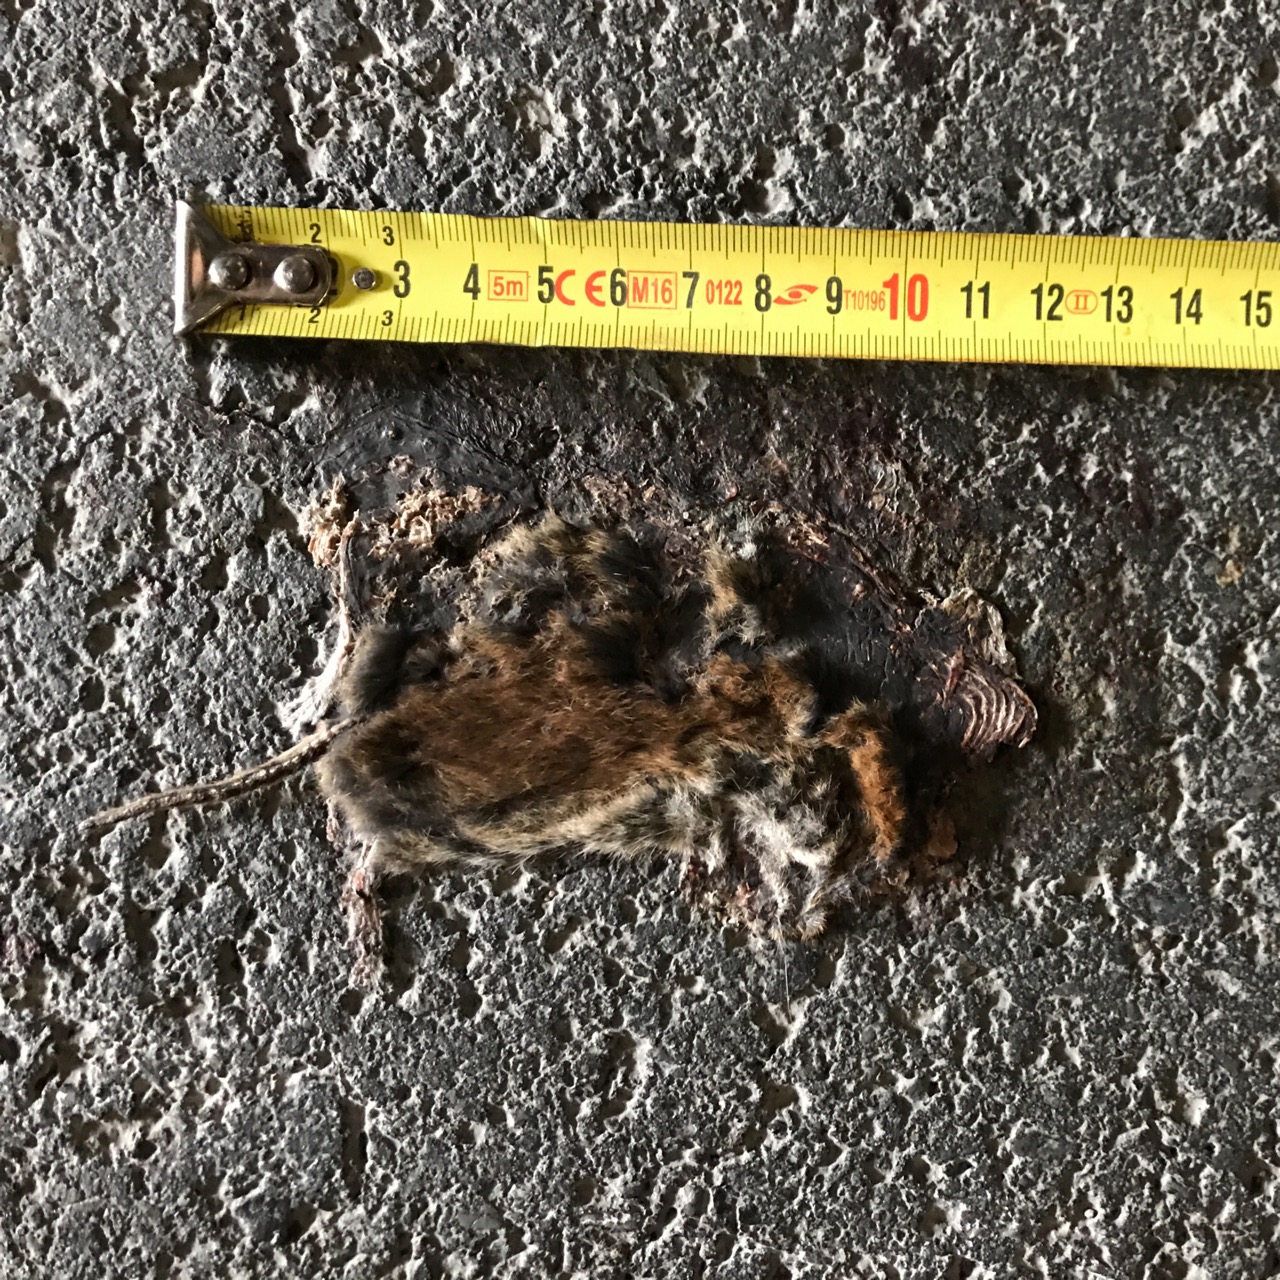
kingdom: Animalia
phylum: Chordata
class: Mammalia
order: Rodentia
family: Cricetidae
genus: Myodes
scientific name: Myodes glareolus
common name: Bank vole
